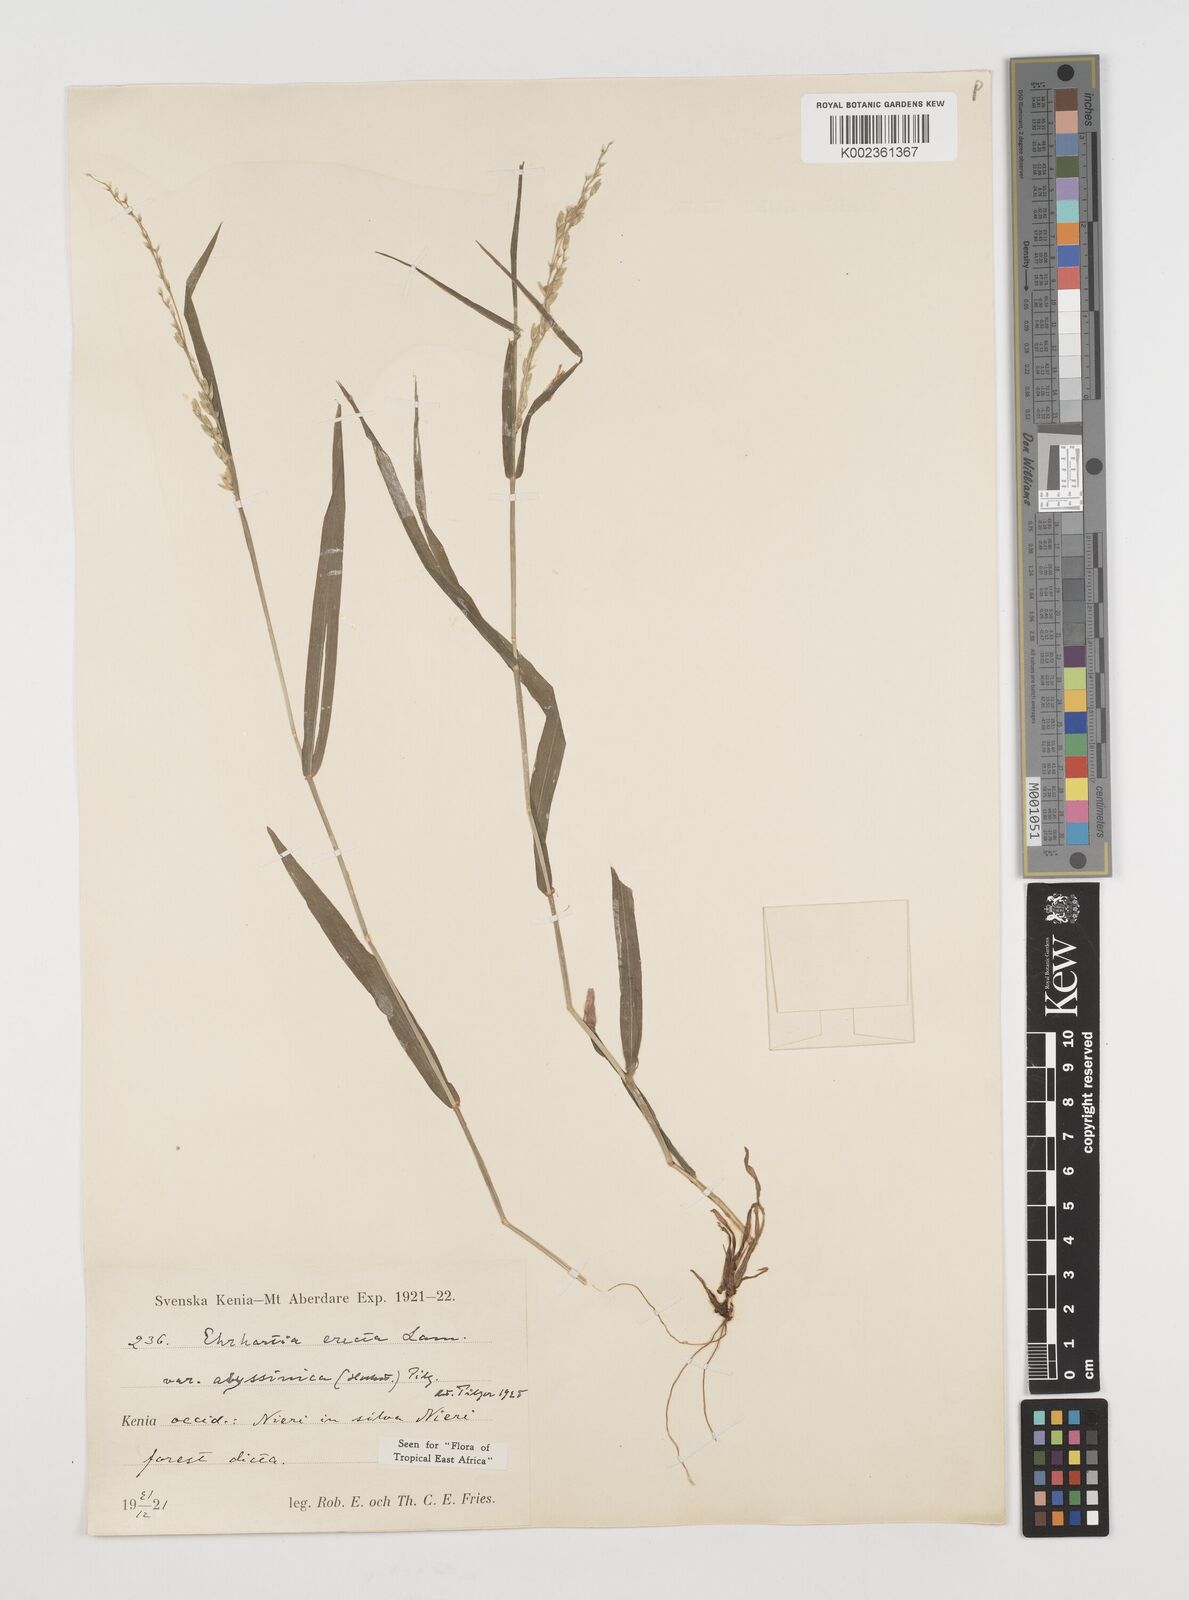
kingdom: Plantae
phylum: Tracheophyta
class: Liliopsida
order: Poales
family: Poaceae
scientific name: Poaceae
